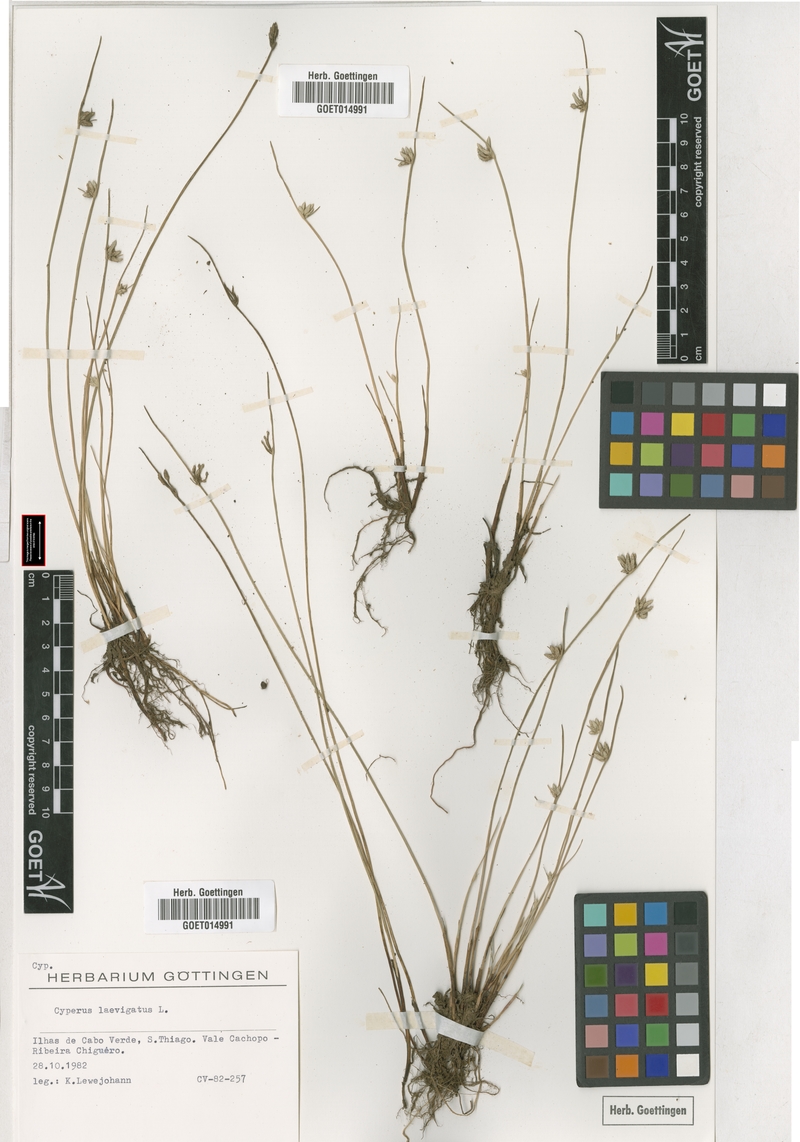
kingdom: Plantae
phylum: Tracheophyta
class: Liliopsida
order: Poales
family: Cyperaceae
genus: Cyperus
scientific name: Cyperus laevigatus
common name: Smooth flat sedge
